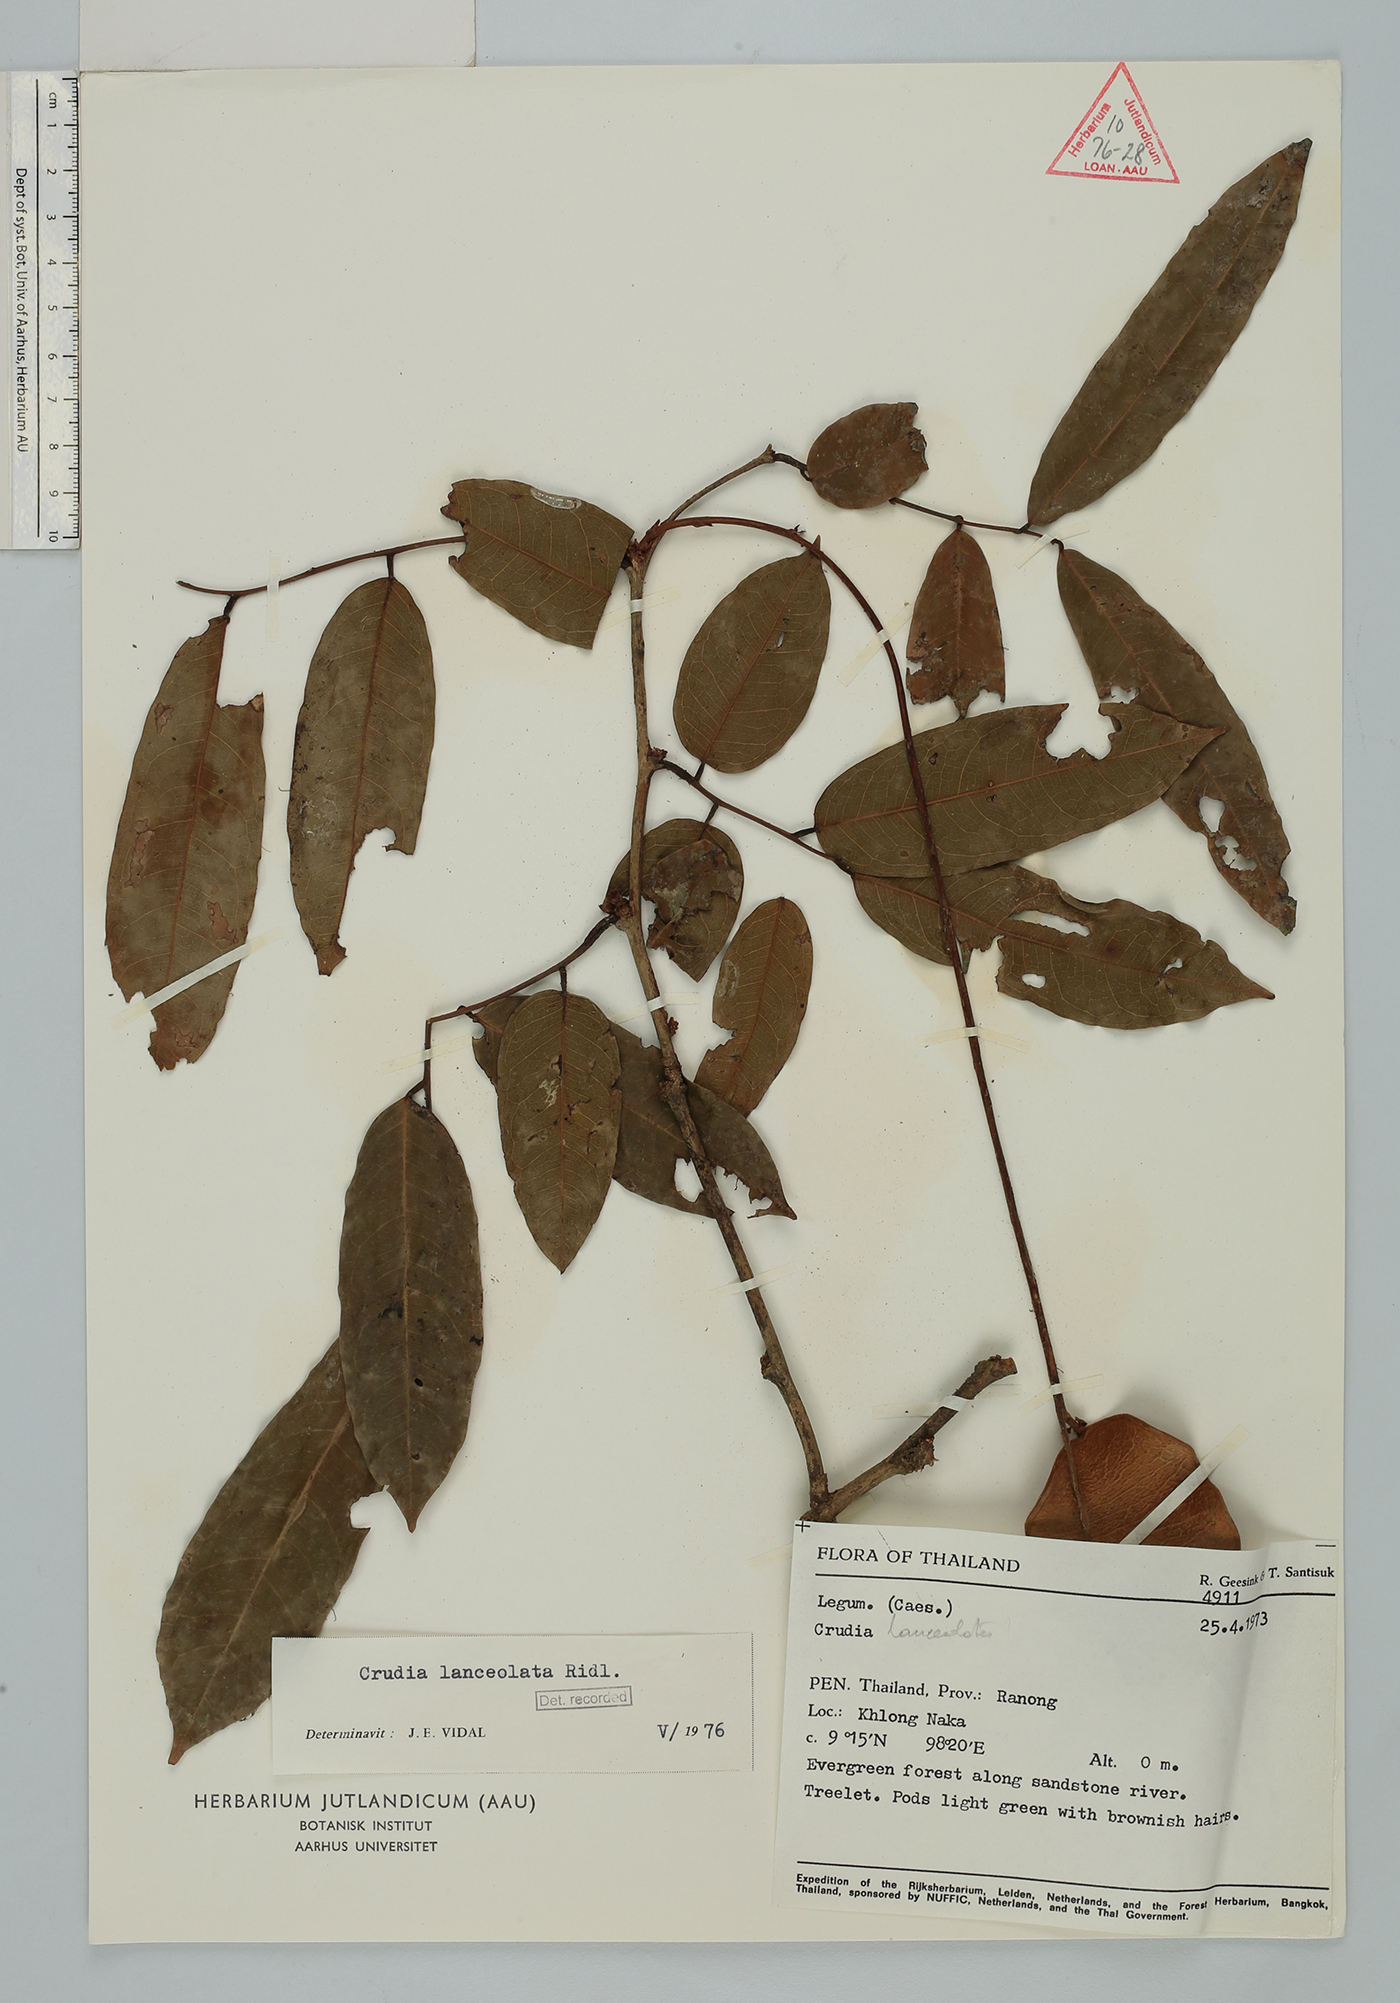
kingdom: Plantae
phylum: Tracheophyta
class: Magnoliopsida
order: Fabales
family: Fabaceae
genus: Crudia
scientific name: Crudia penduliflora
